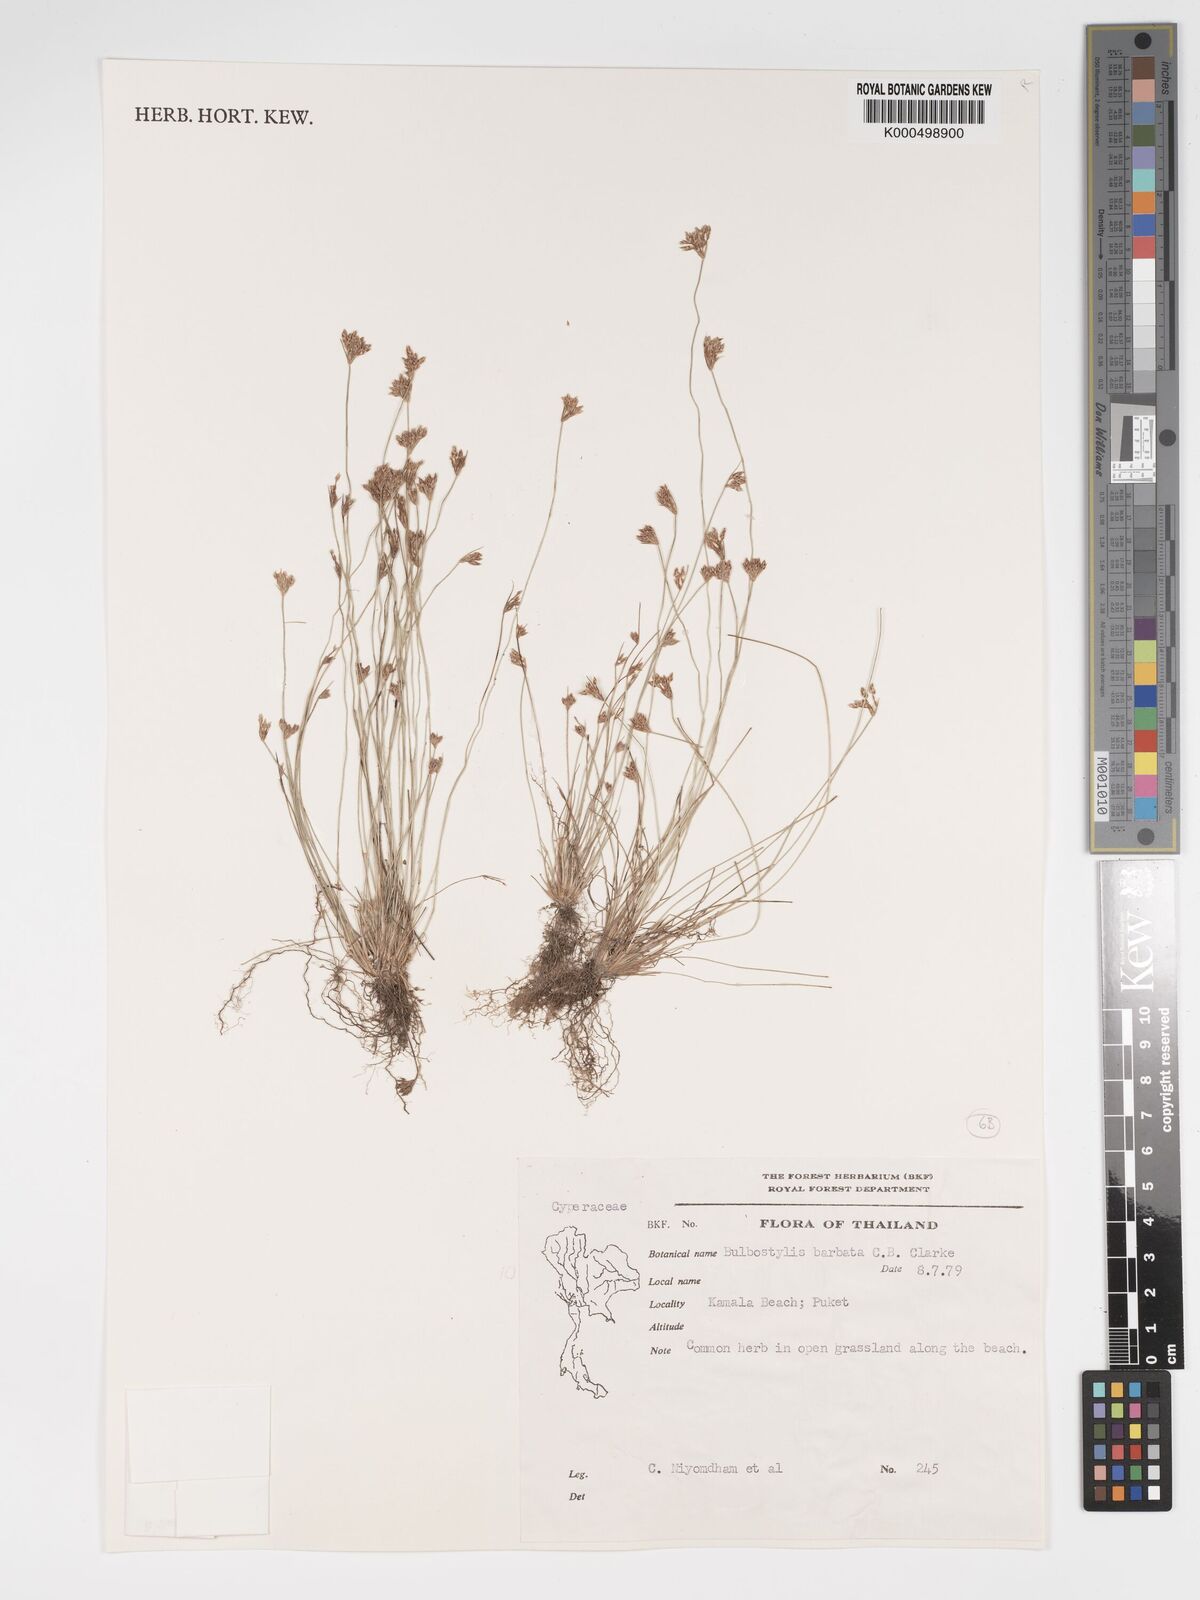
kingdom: Plantae
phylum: Tracheophyta
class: Liliopsida
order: Poales
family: Cyperaceae
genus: Bulbostylis
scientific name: Bulbostylis barbata
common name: Watergrass
